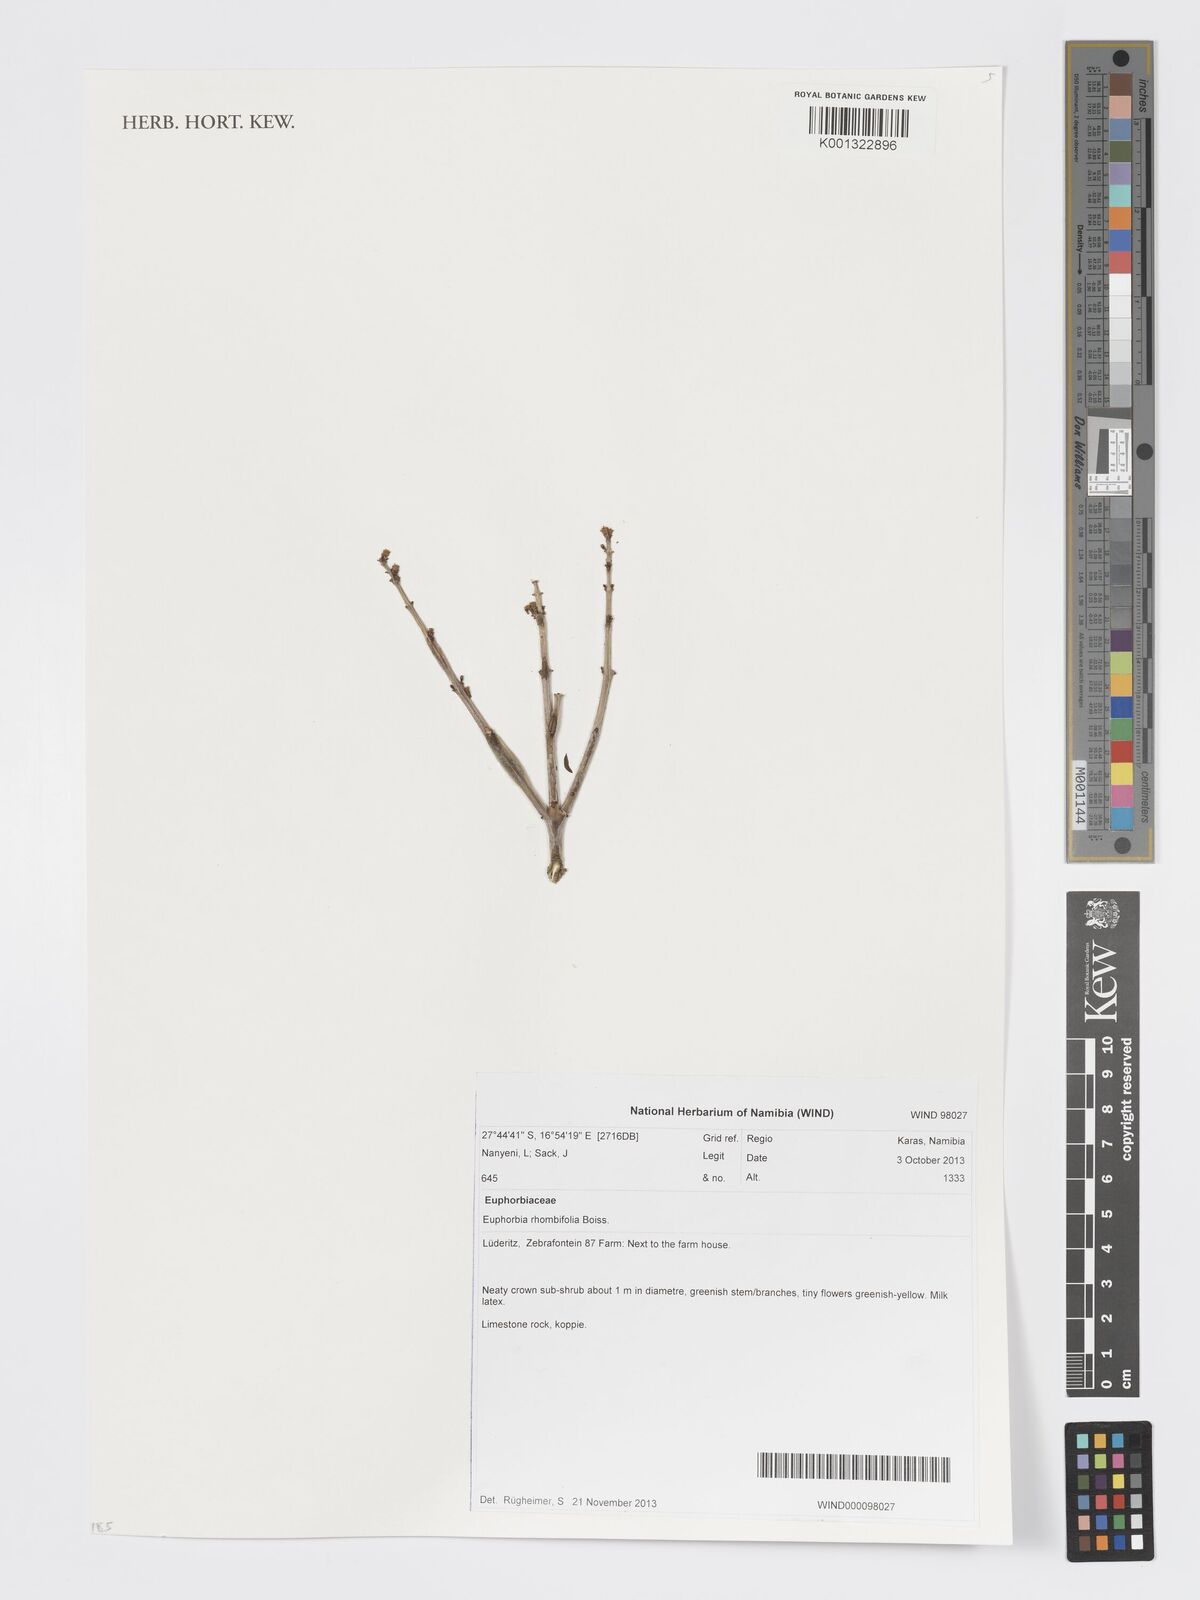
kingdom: Plantae
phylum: Tracheophyta
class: Magnoliopsida
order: Malpighiales
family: Euphorbiaceae
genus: Euphorbia
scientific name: Euphorbia rhombifolia
